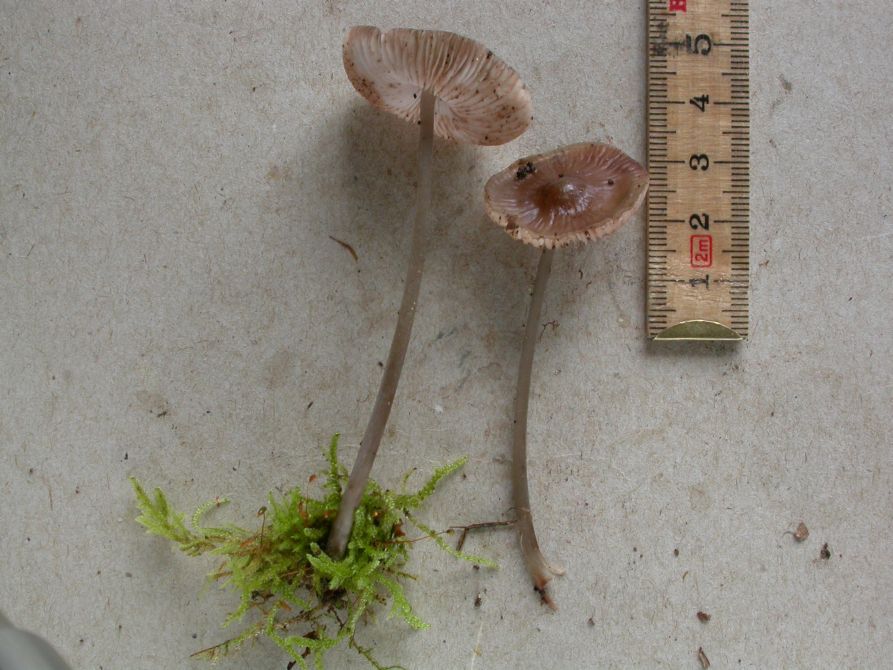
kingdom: Fungi
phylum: Basidiomycota
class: Agaricomycetes
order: Agaricales
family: Mycenaceae
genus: Mycena
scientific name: Mycena polygramma
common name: mangestribet huesvamp
